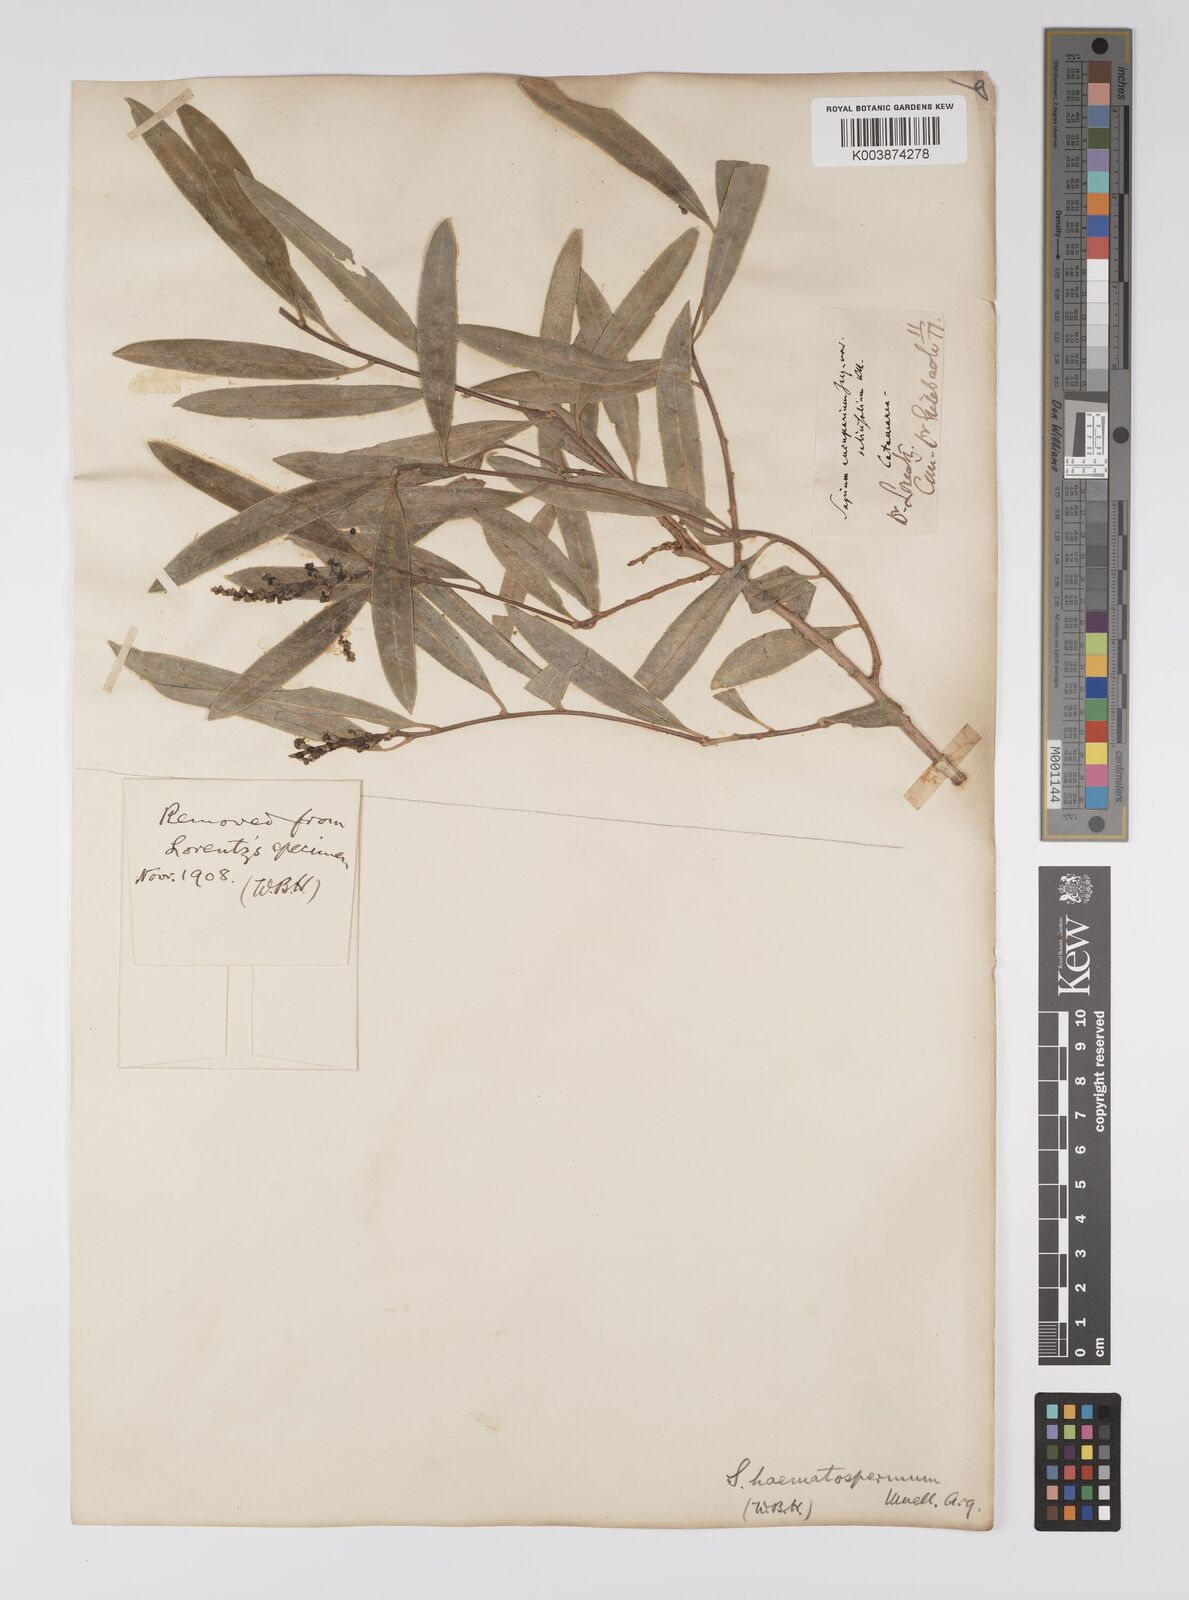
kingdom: Plantae
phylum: Tracheophyta
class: Magnoliopsida
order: Malpighiales
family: Euphorbiaceae
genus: Sapium
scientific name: Sapium haematospermum
